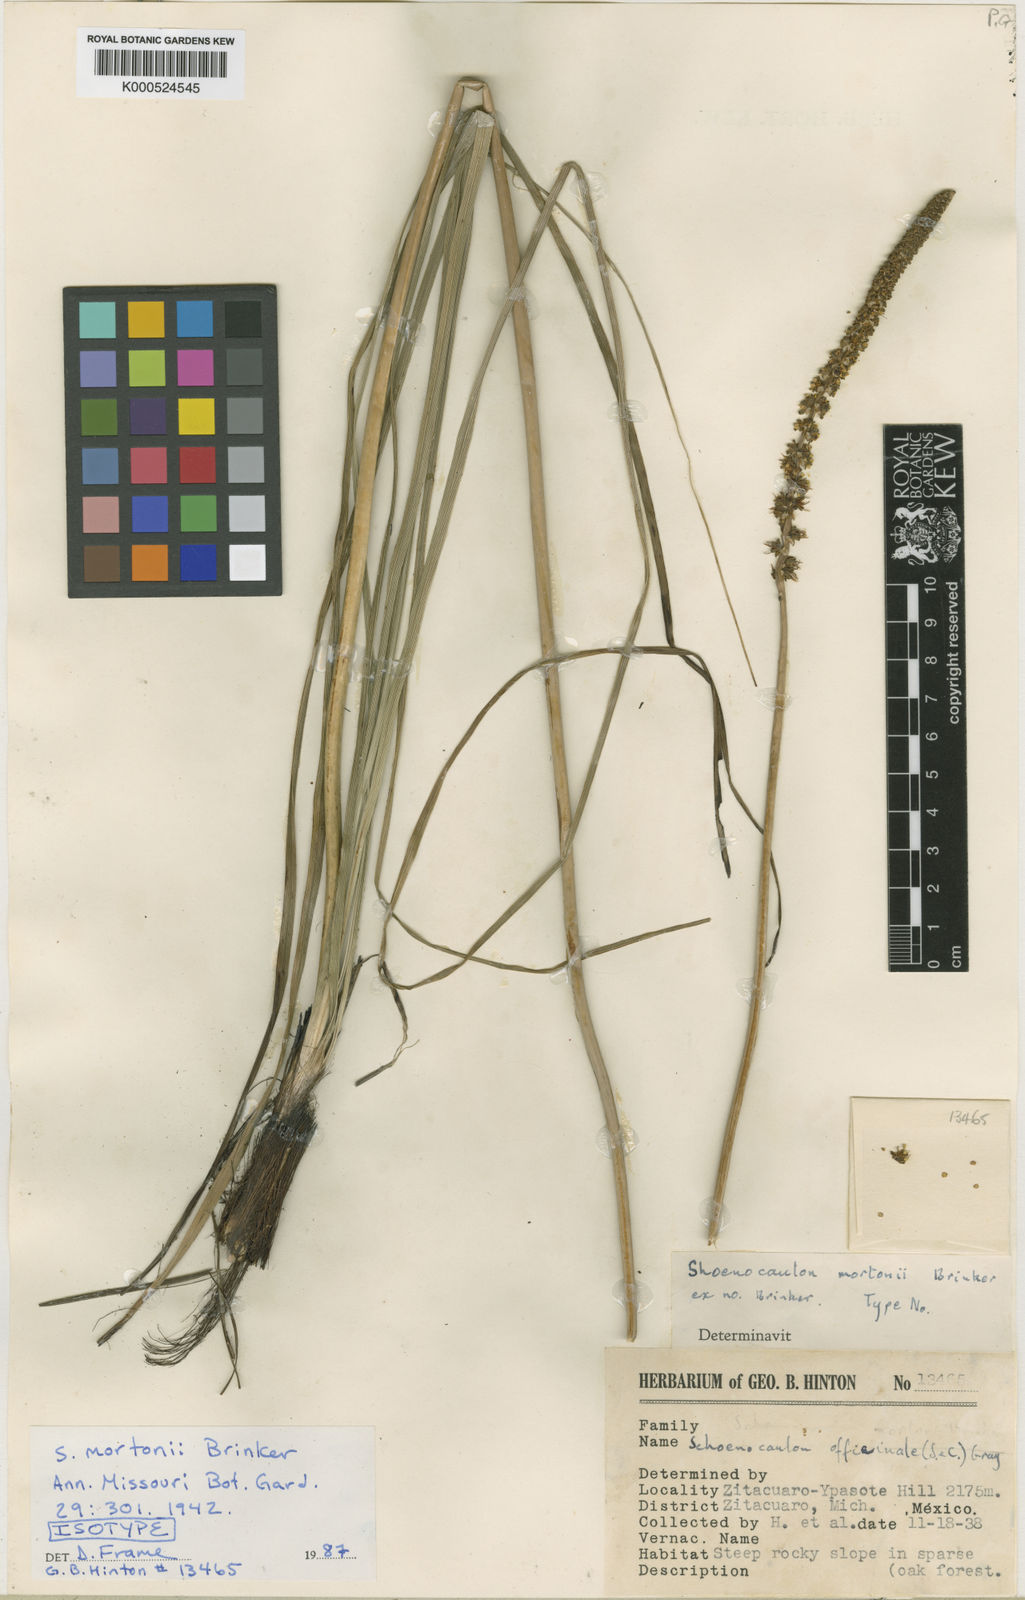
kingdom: Plantae
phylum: Tracheophyta
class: Liliopsida
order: Liliales
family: Melanthiaceae
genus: Schoenocaulon
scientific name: Schoenocaulon mortonii
